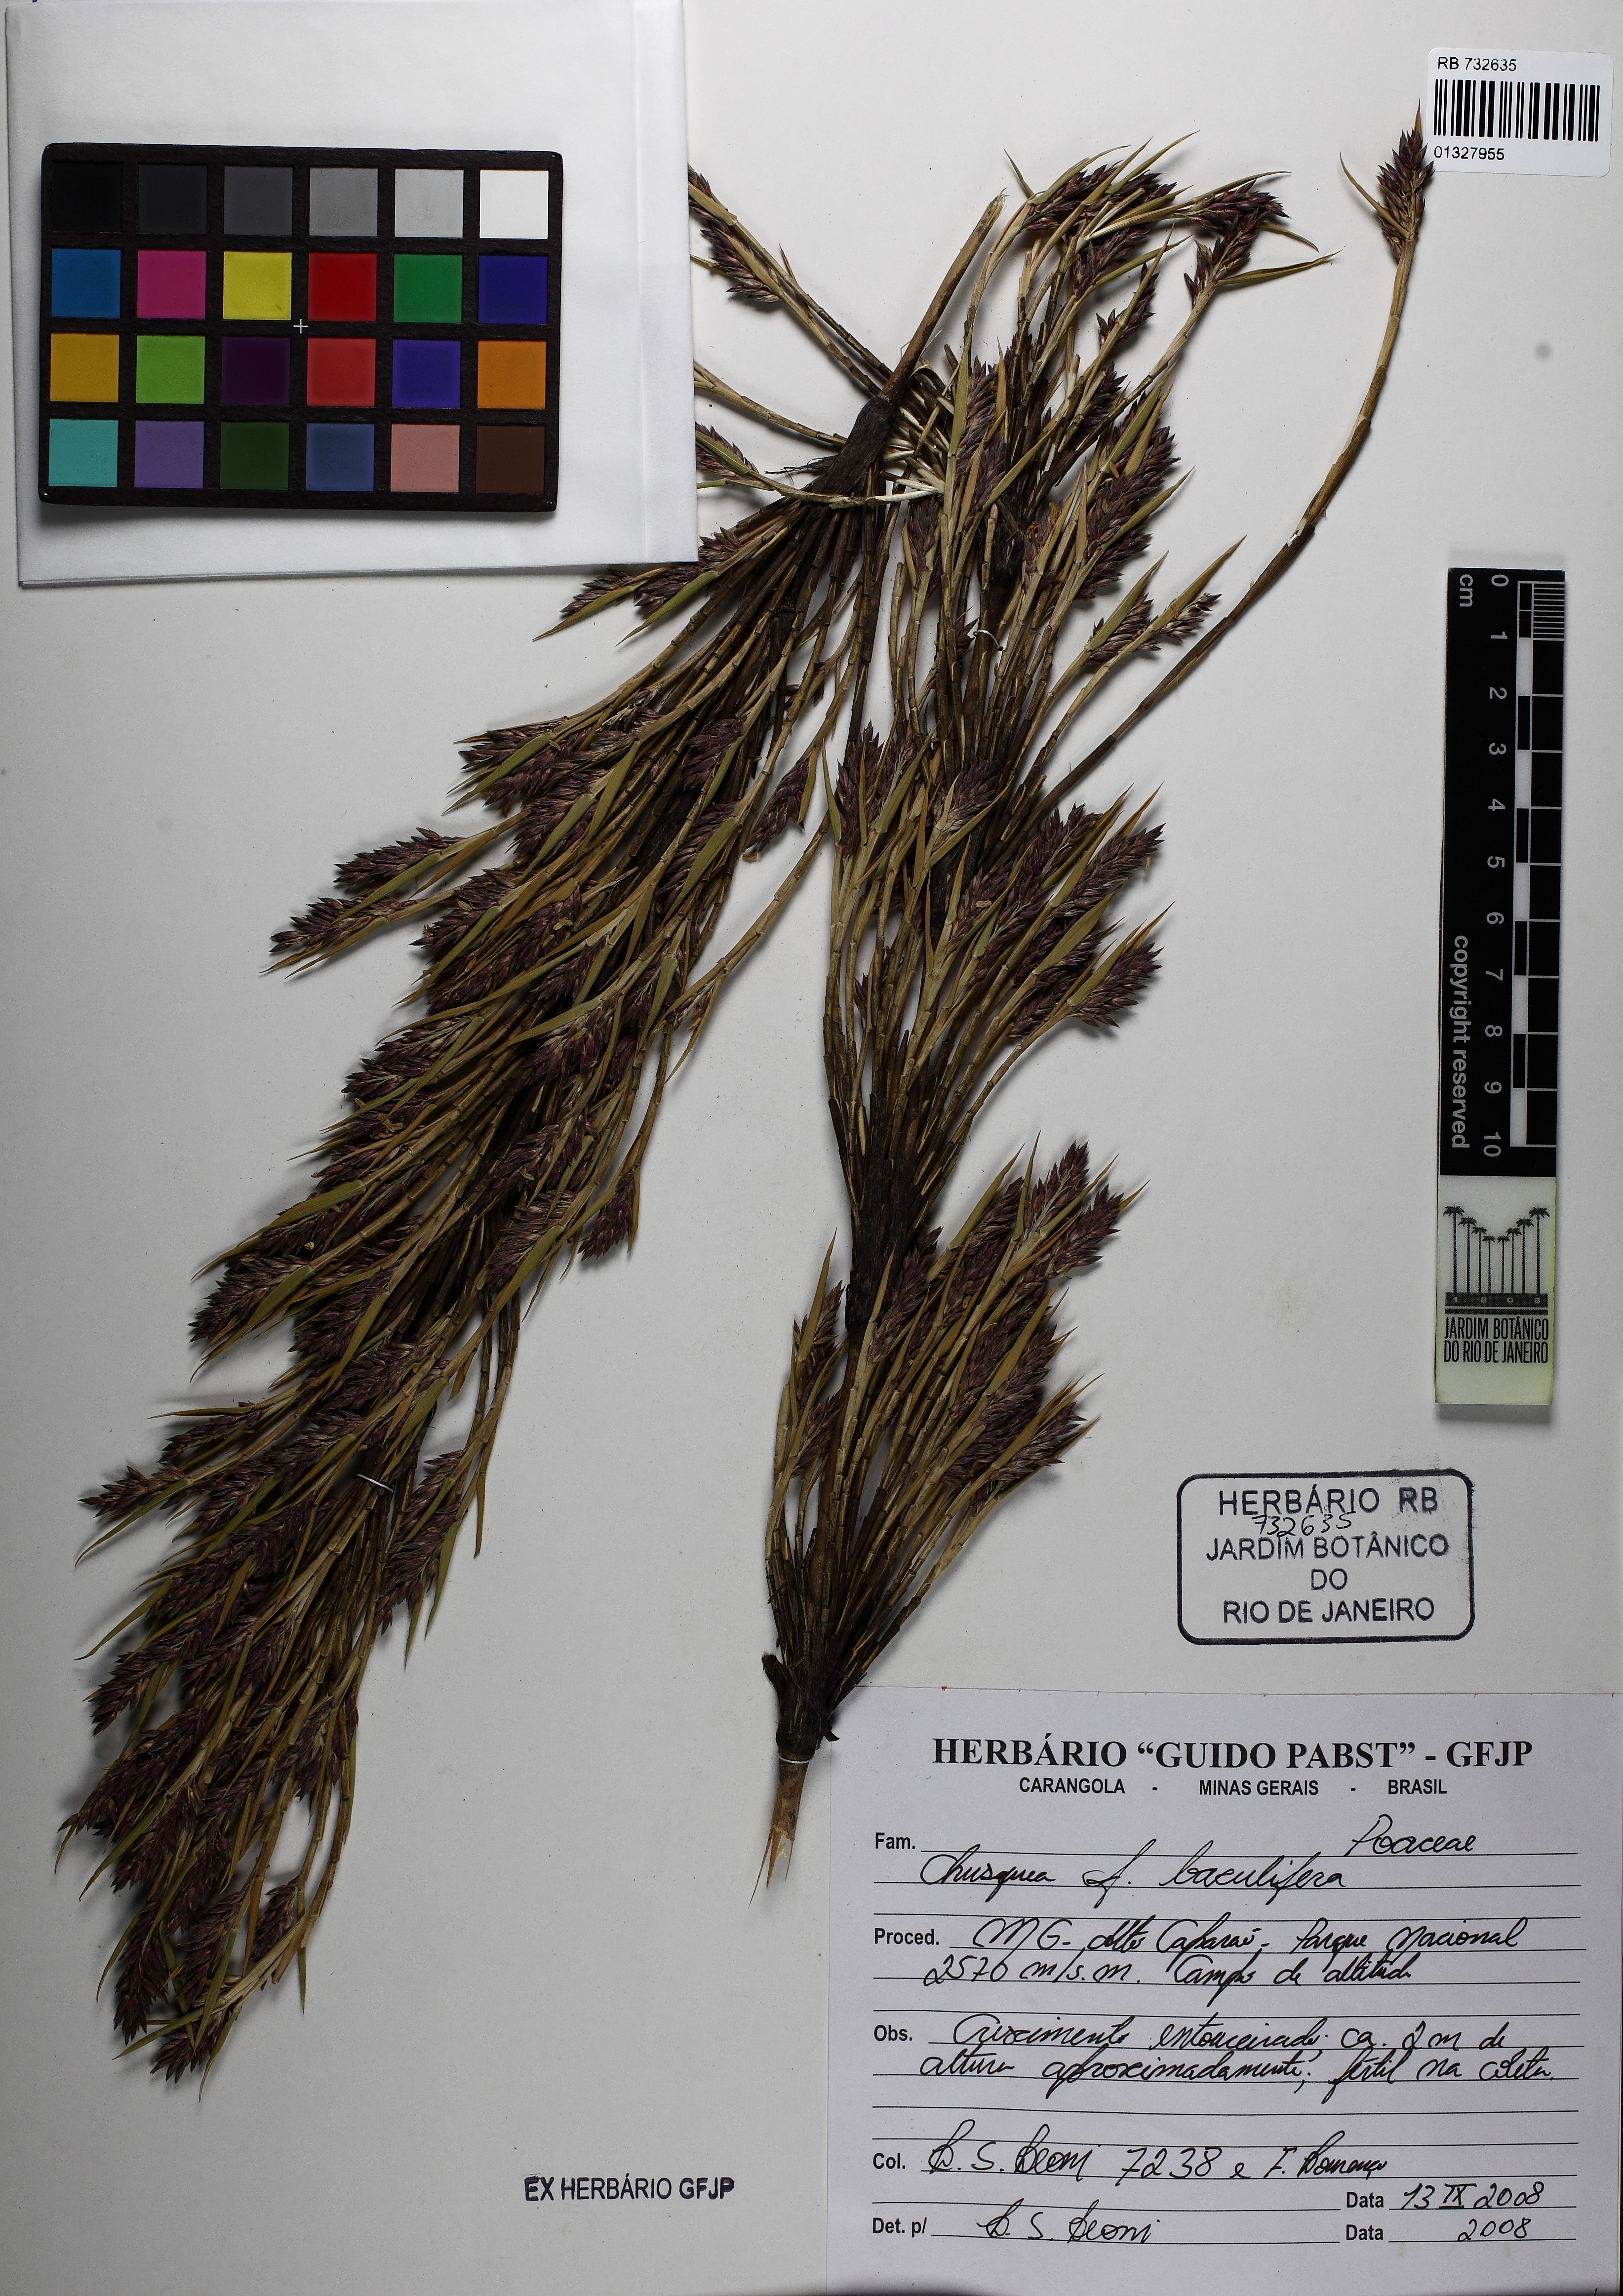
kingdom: Plantae
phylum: Tracheophyta
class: Liliopsida
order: Poales
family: Poaceae
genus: Chusquea
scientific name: Chusquea baculifera
